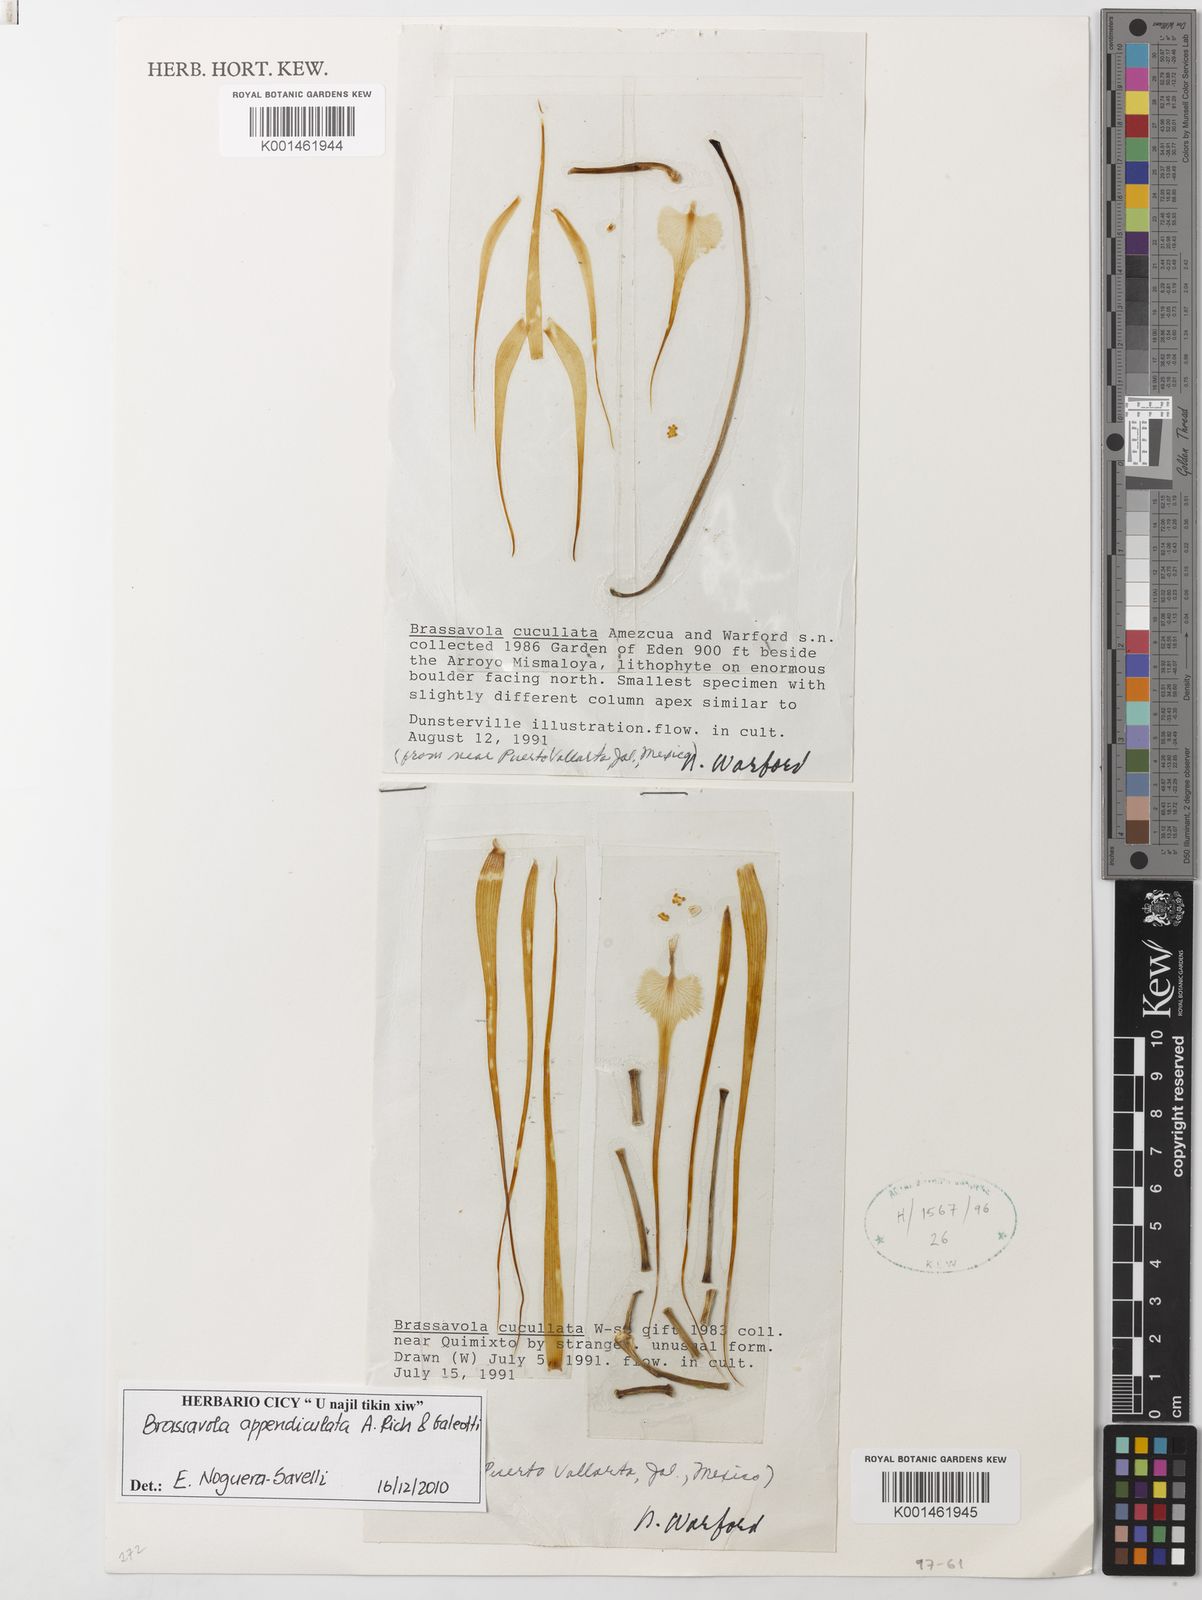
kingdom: Plantae
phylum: Tracheophyta
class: Liliopsida
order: Asparagales
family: Orchidaceae
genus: Brassavola
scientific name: Brassavola cucullata
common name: Daddy longlegs orchid
